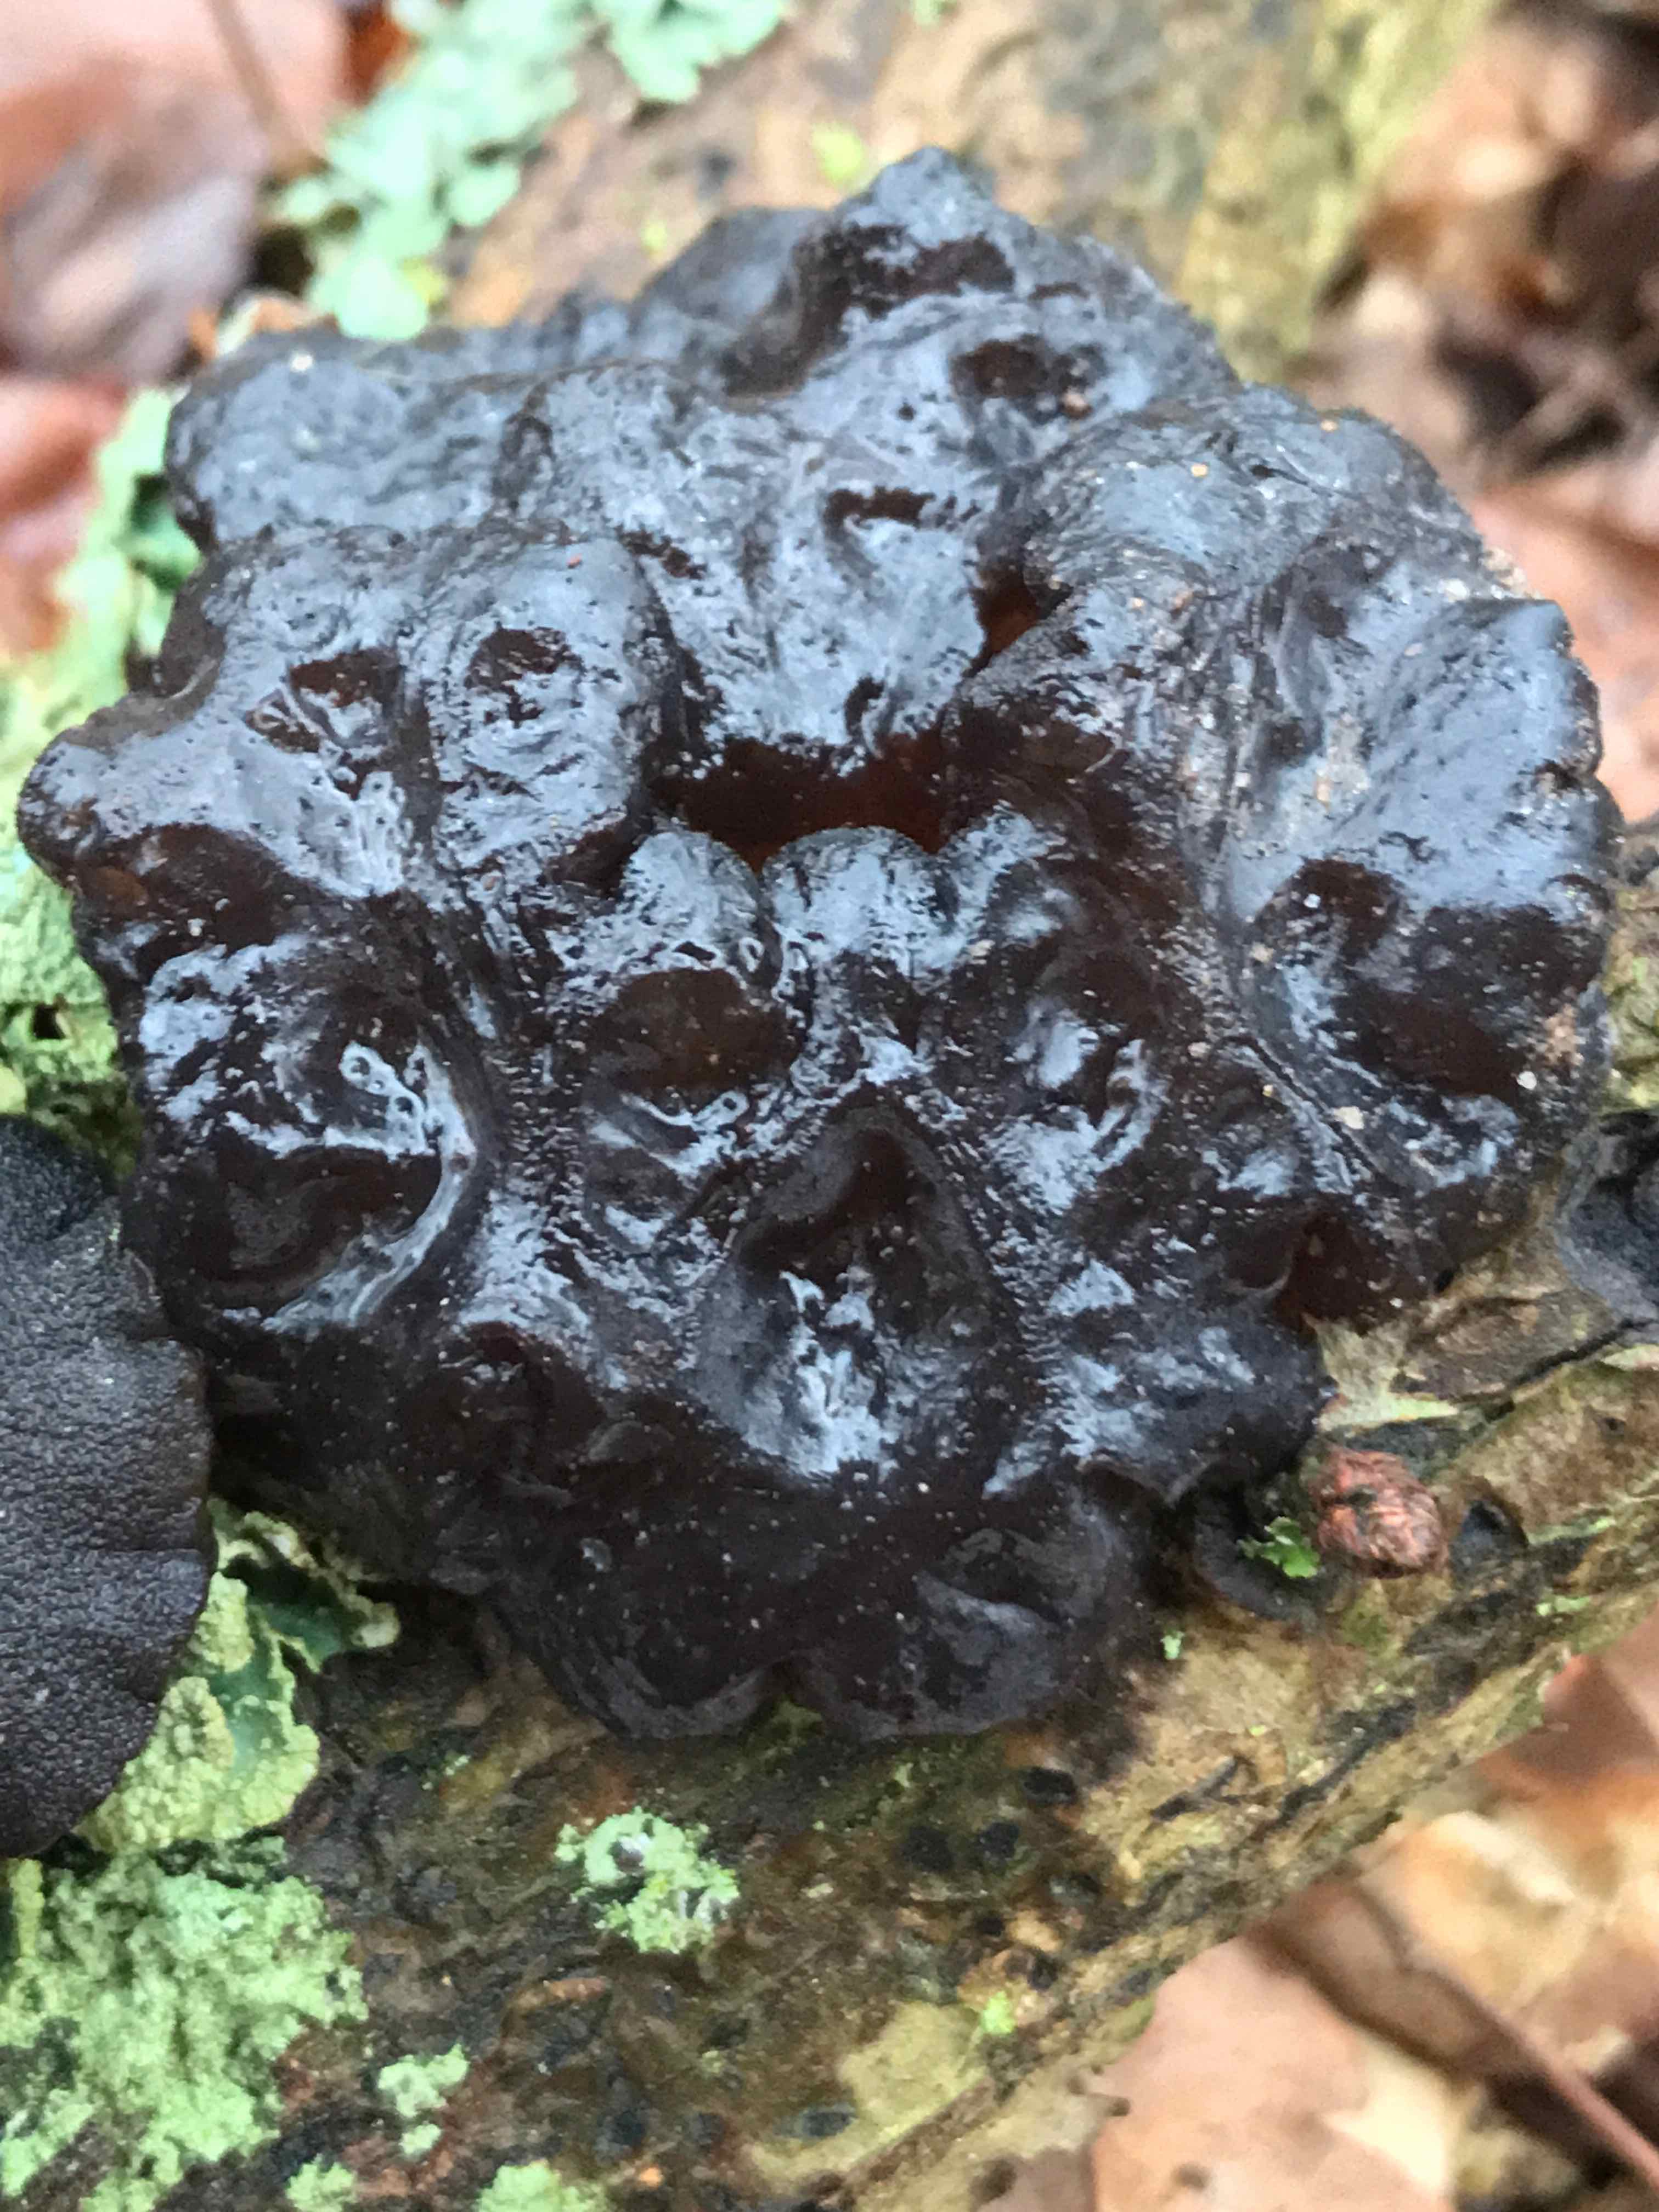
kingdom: Fungi
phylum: Basidiomycota
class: Agaricomycetes
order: Auriculariales
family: Auriculariaceae
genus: Exidia
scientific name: Exidia glandulosa
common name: ege-bævretop
